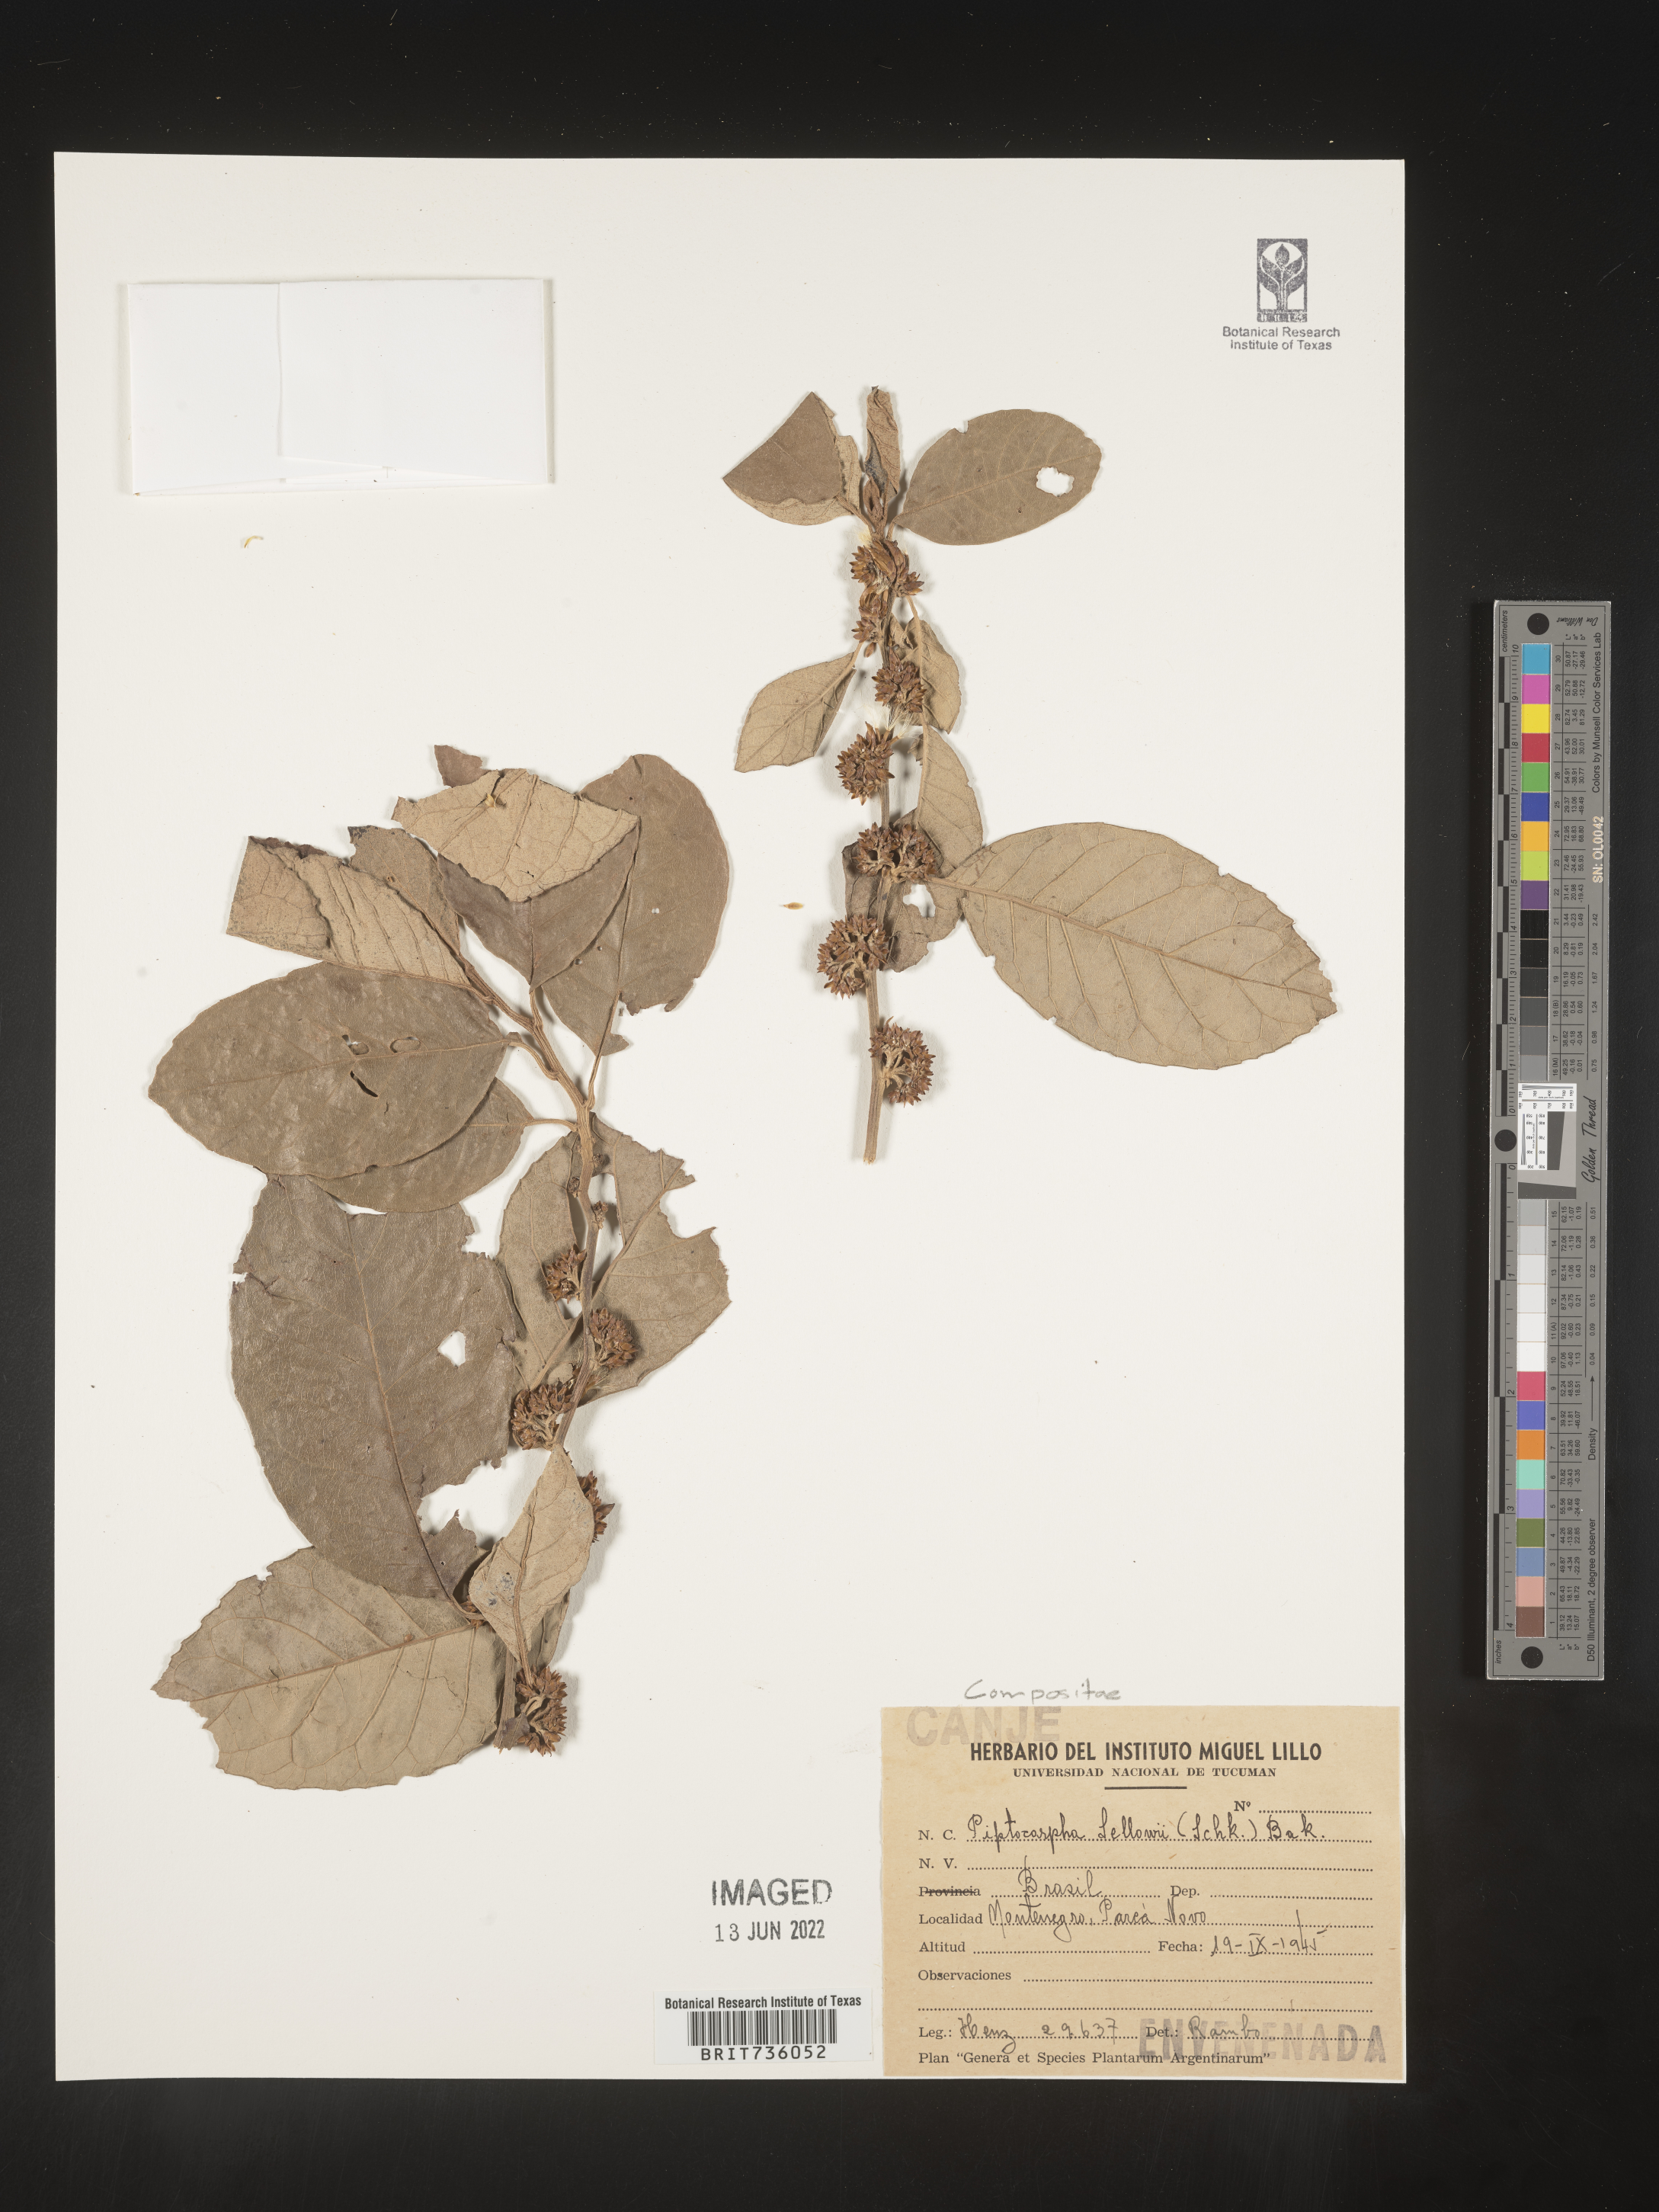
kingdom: Plantae
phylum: Tracheophyta
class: Magnoliopsida
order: Asterales
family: Asteraceae
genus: Piptocarpha
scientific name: Piptocarpha
